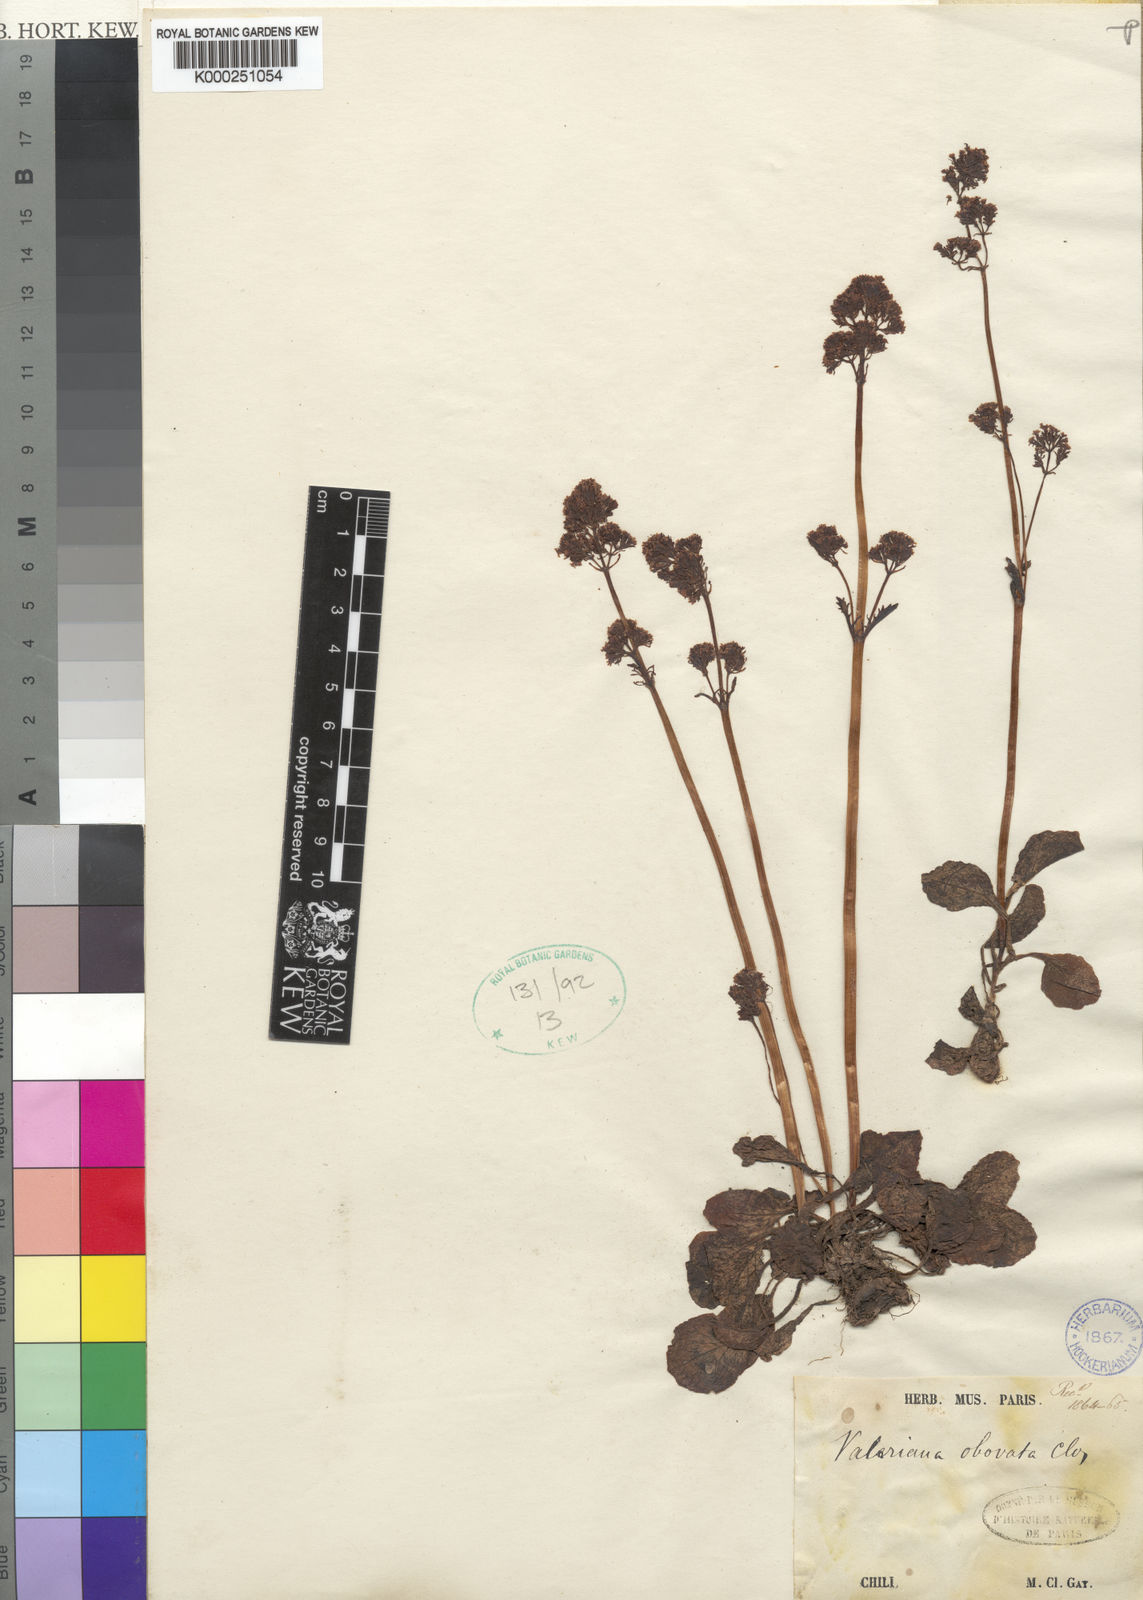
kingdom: Plantae
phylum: Tracheophyta
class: Magnoliopsida
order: Dipsacales
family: Caprifoliaceae
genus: Valeriana
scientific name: Valeriana crispa
